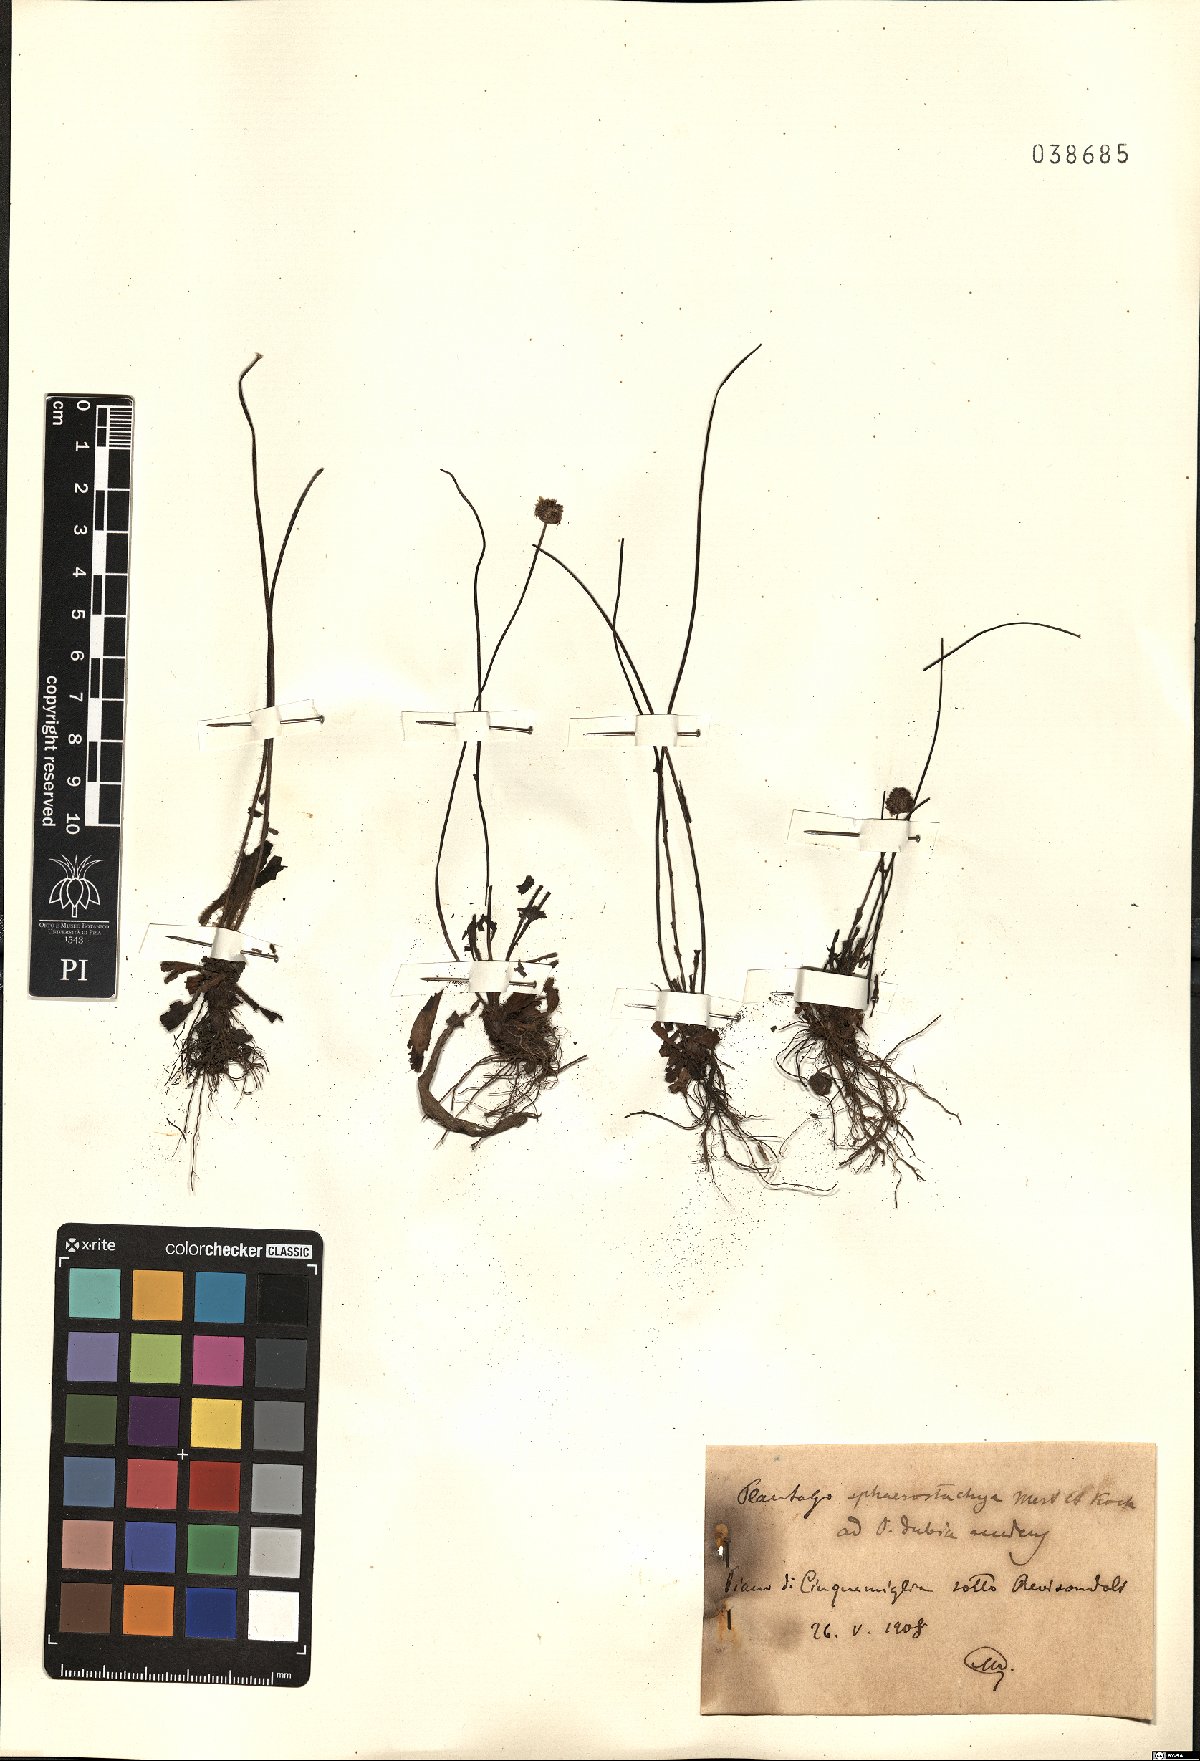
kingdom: Plantae
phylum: Tracheophyta
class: Magnoliopsida
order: Lamiales
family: Plantaginaceae
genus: Plantago
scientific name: Plantago lanceolata
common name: Ribwort plantain
